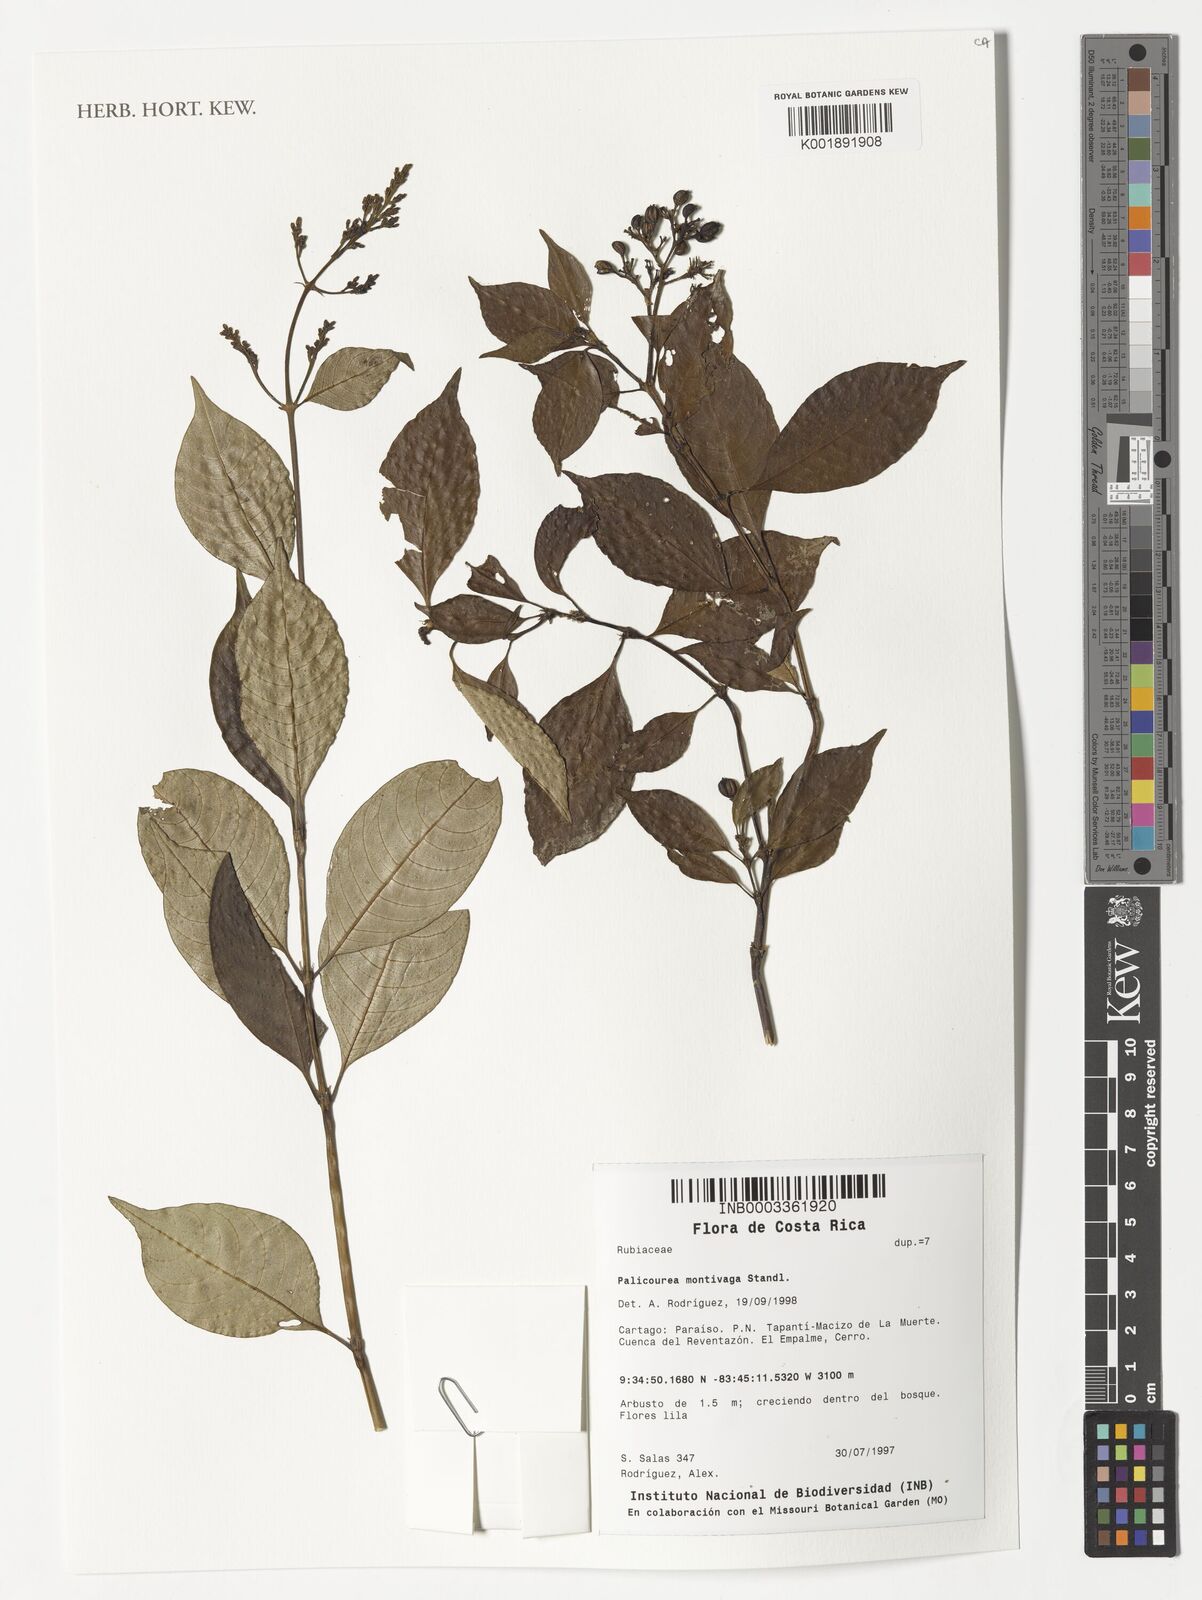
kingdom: Plantae
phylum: Tracheophyta
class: Magnoliopsida
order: Gentianales
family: Rubiaceae
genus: Palicourea
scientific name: Palicourea montivaga
